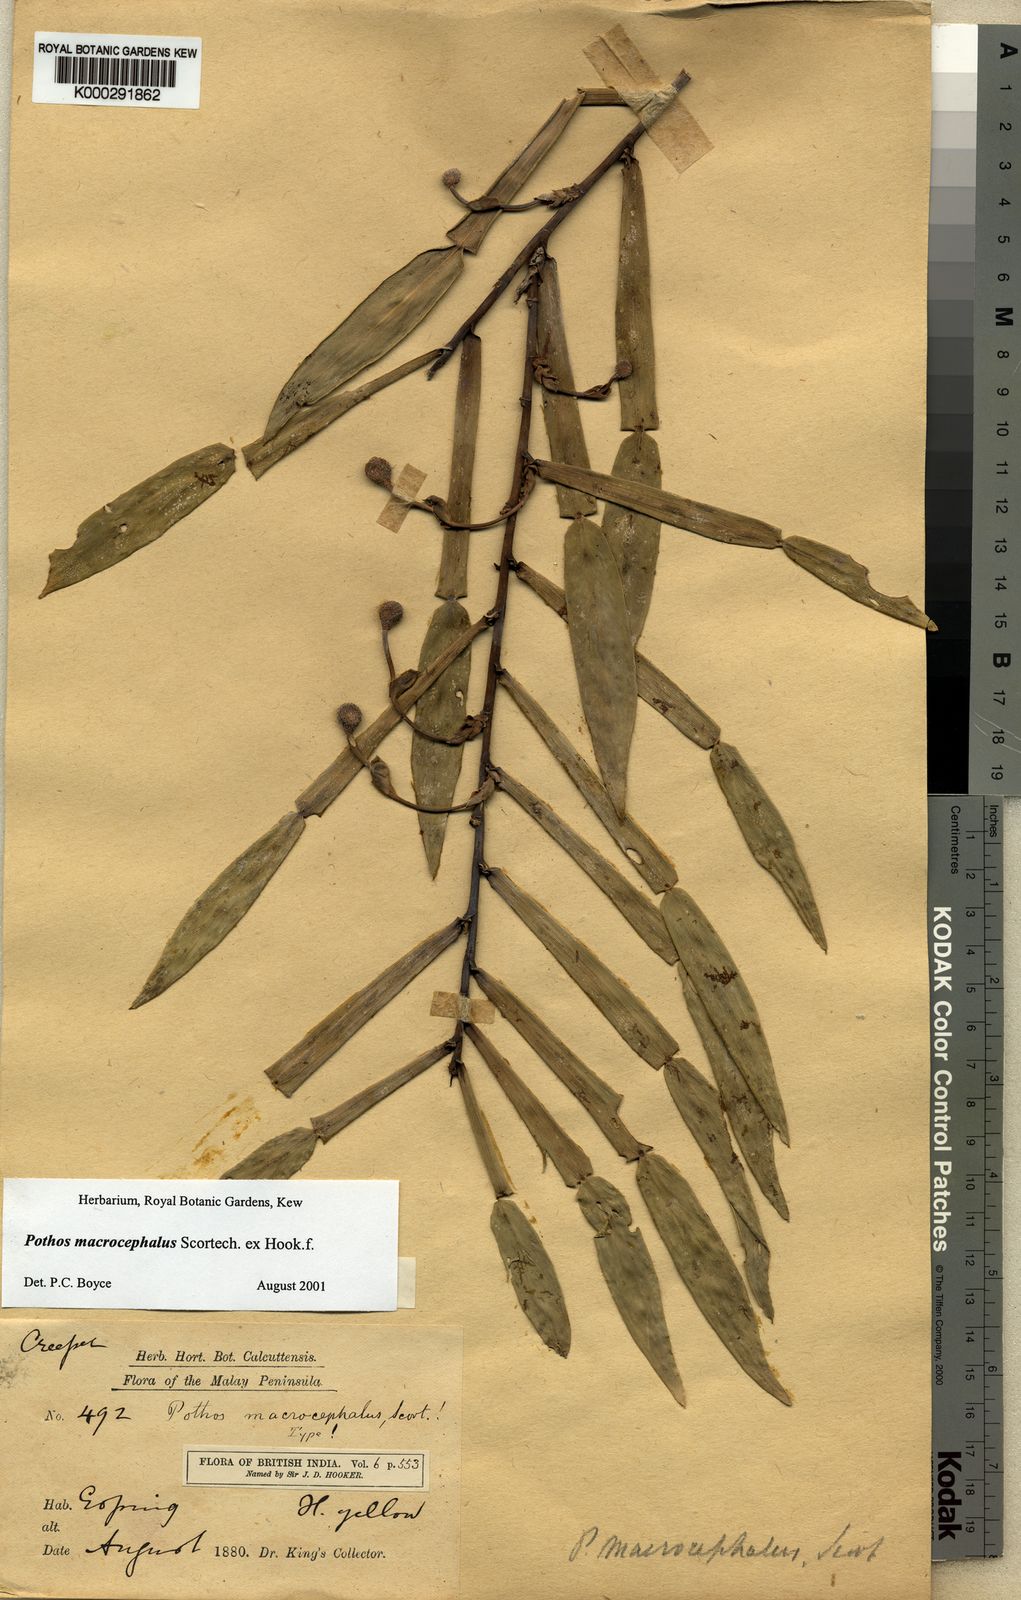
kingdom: Plantae
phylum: Tracheophyta
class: Liliopsida
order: Alismatales
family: Araceae
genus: Pothos
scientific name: Pothos macrocephalus
